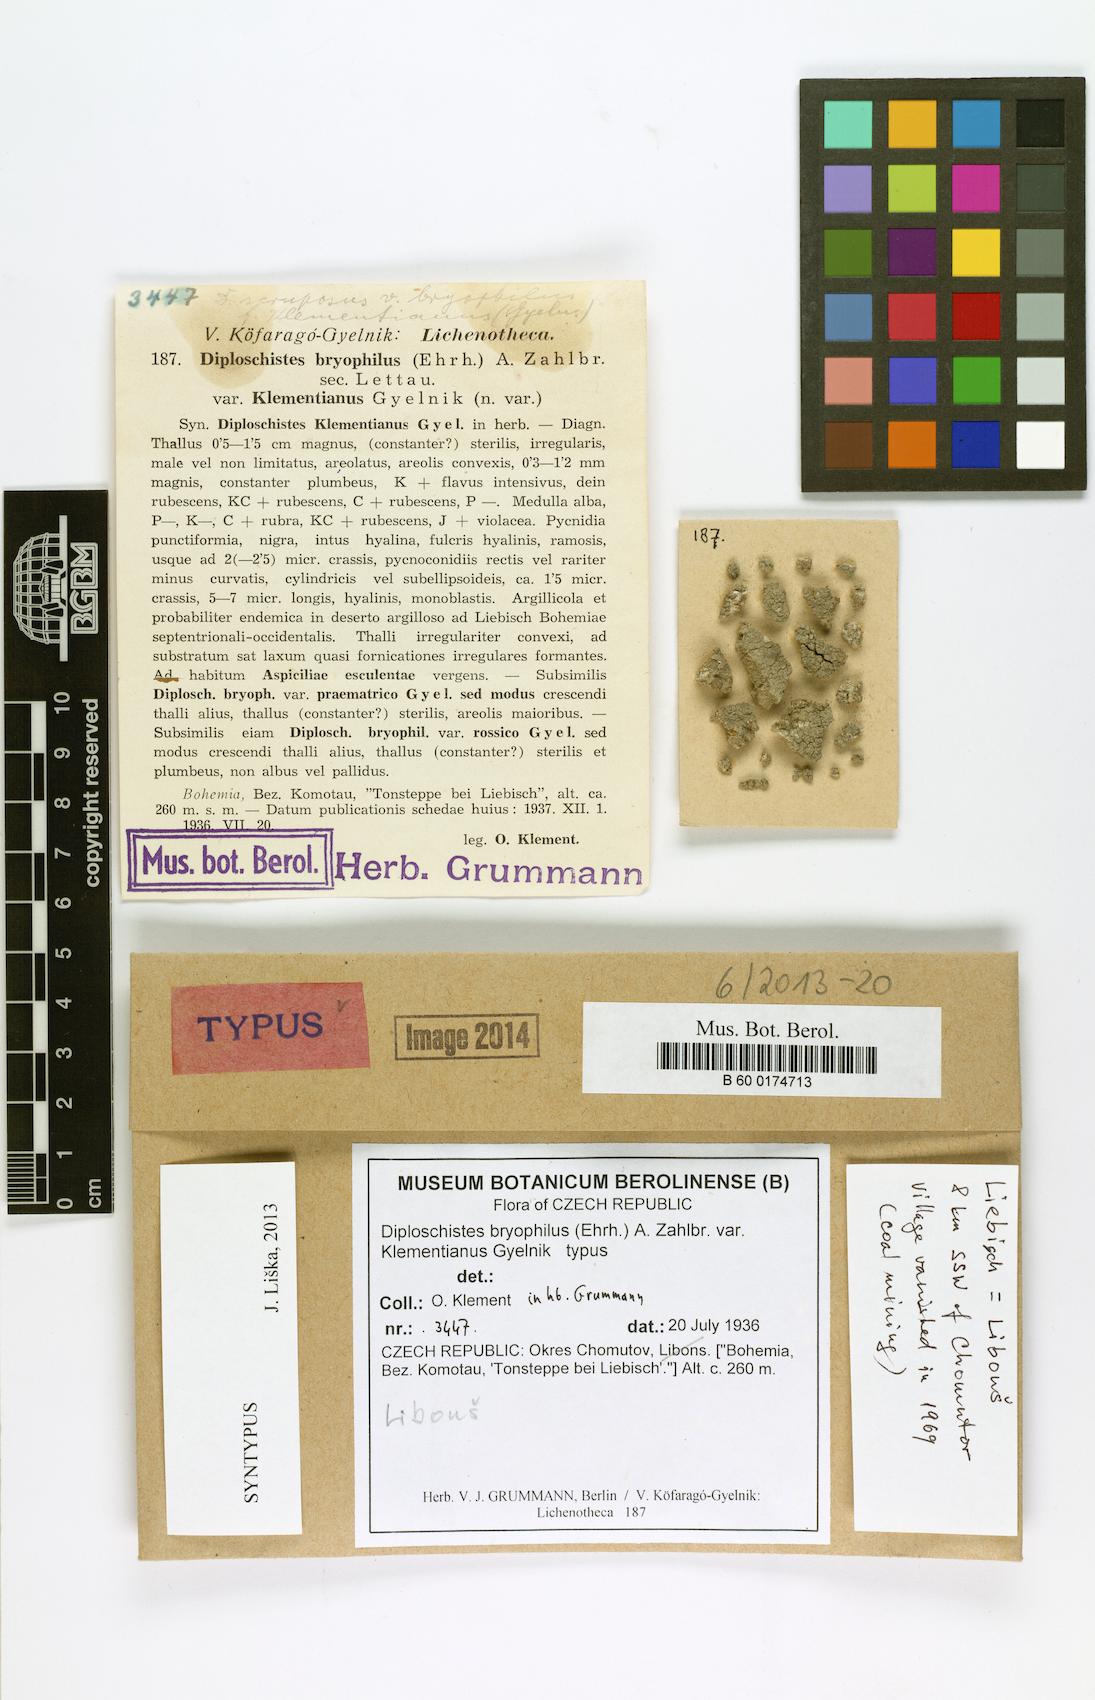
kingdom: Fungi
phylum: Ascomycota
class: Lecanoromycetes
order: Ostropales
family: Graphidaceae
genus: Diploschistes
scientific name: Diploschistes muscorum
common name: Cowpie lichen
